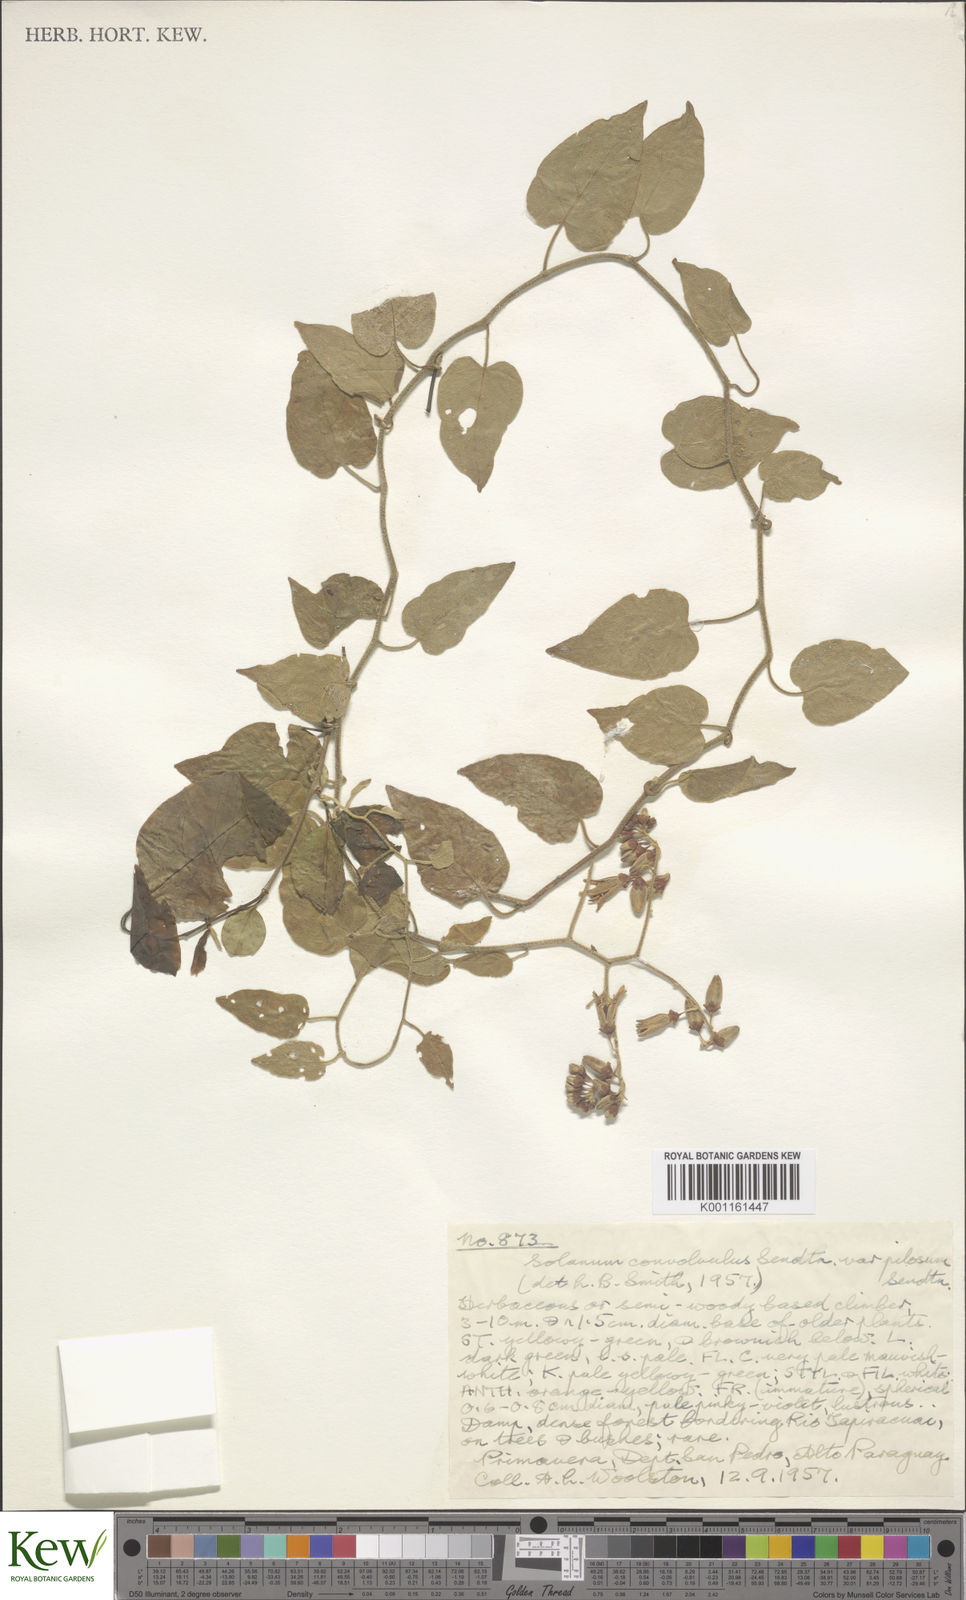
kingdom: Plantae
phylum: Tracheophyta
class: Magnoliopsida
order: Solanales
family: Solanaceae
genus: Solanum
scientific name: Solanum armentalis
